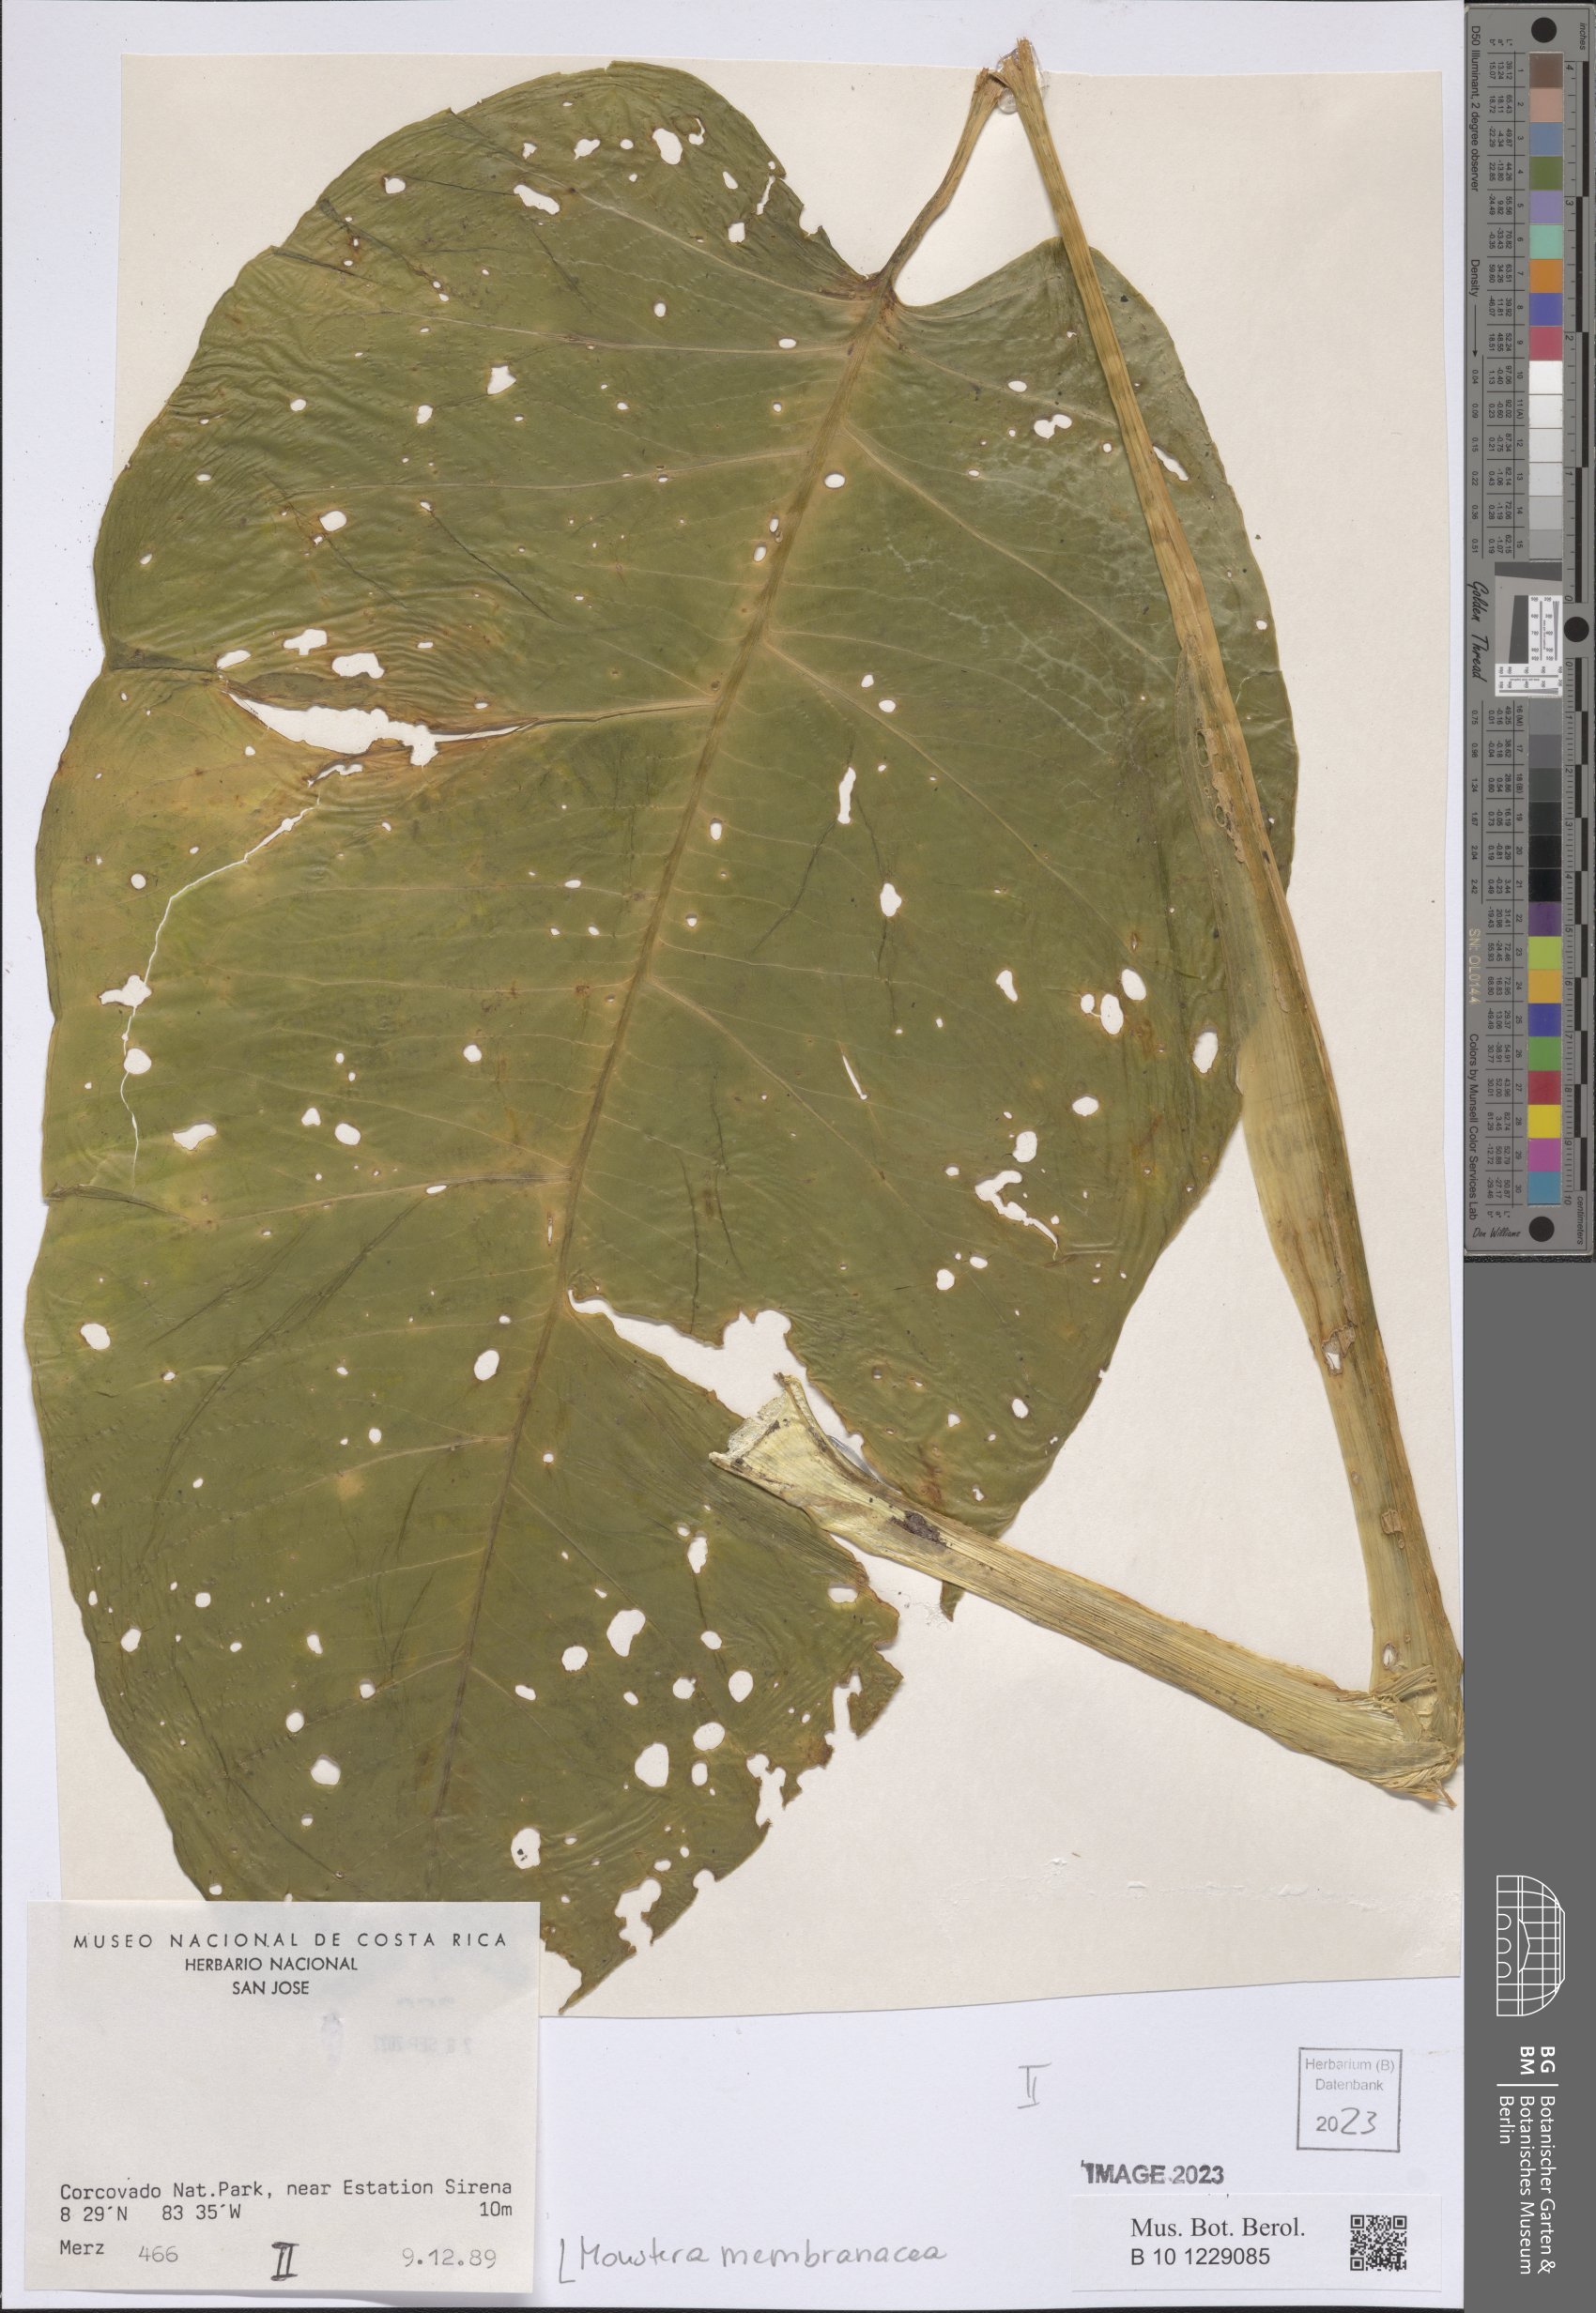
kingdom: Plantae
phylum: Tracheophyta
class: Liliopsida
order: Alismatales
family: Araceae
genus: Monstera
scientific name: Monstera membranacea
